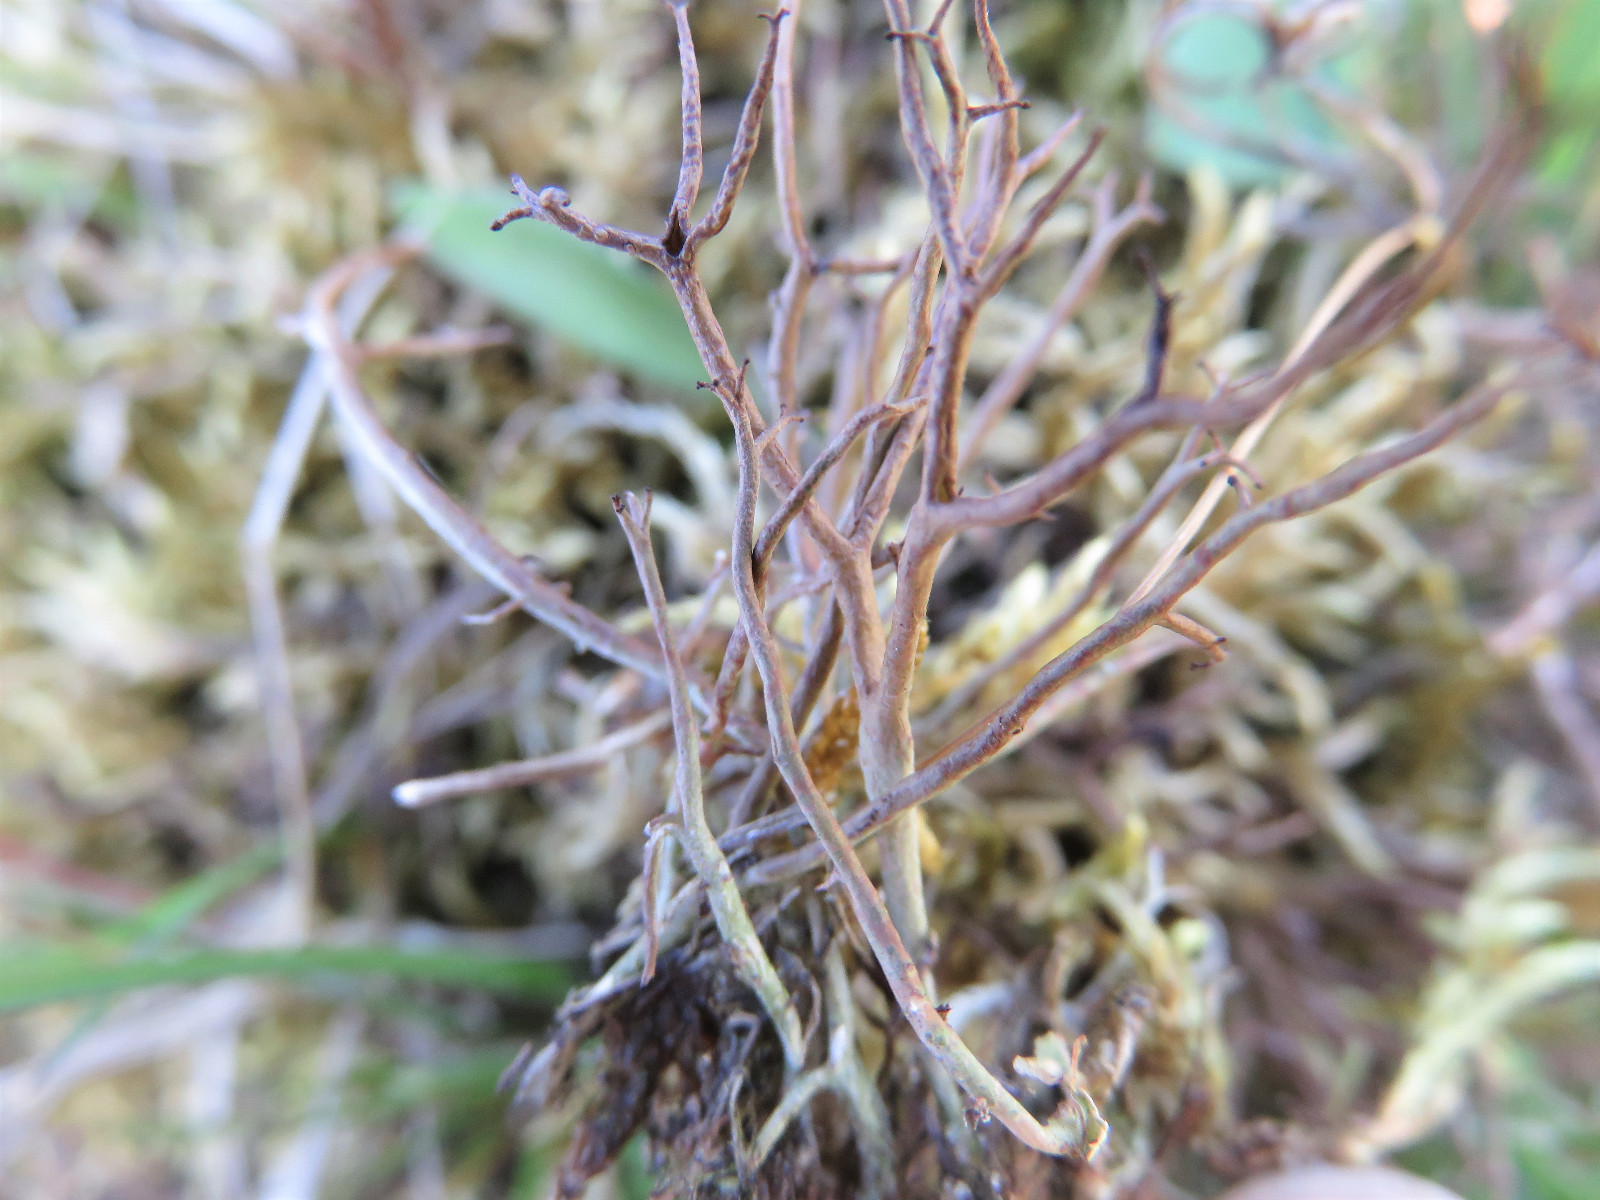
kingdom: Fungi
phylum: Ascomycota
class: Lecanoromycetes
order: Lecanorales
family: Cladoniaceae
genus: Cladonia
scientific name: Cladonia furcata
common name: kløftet bægerlav
